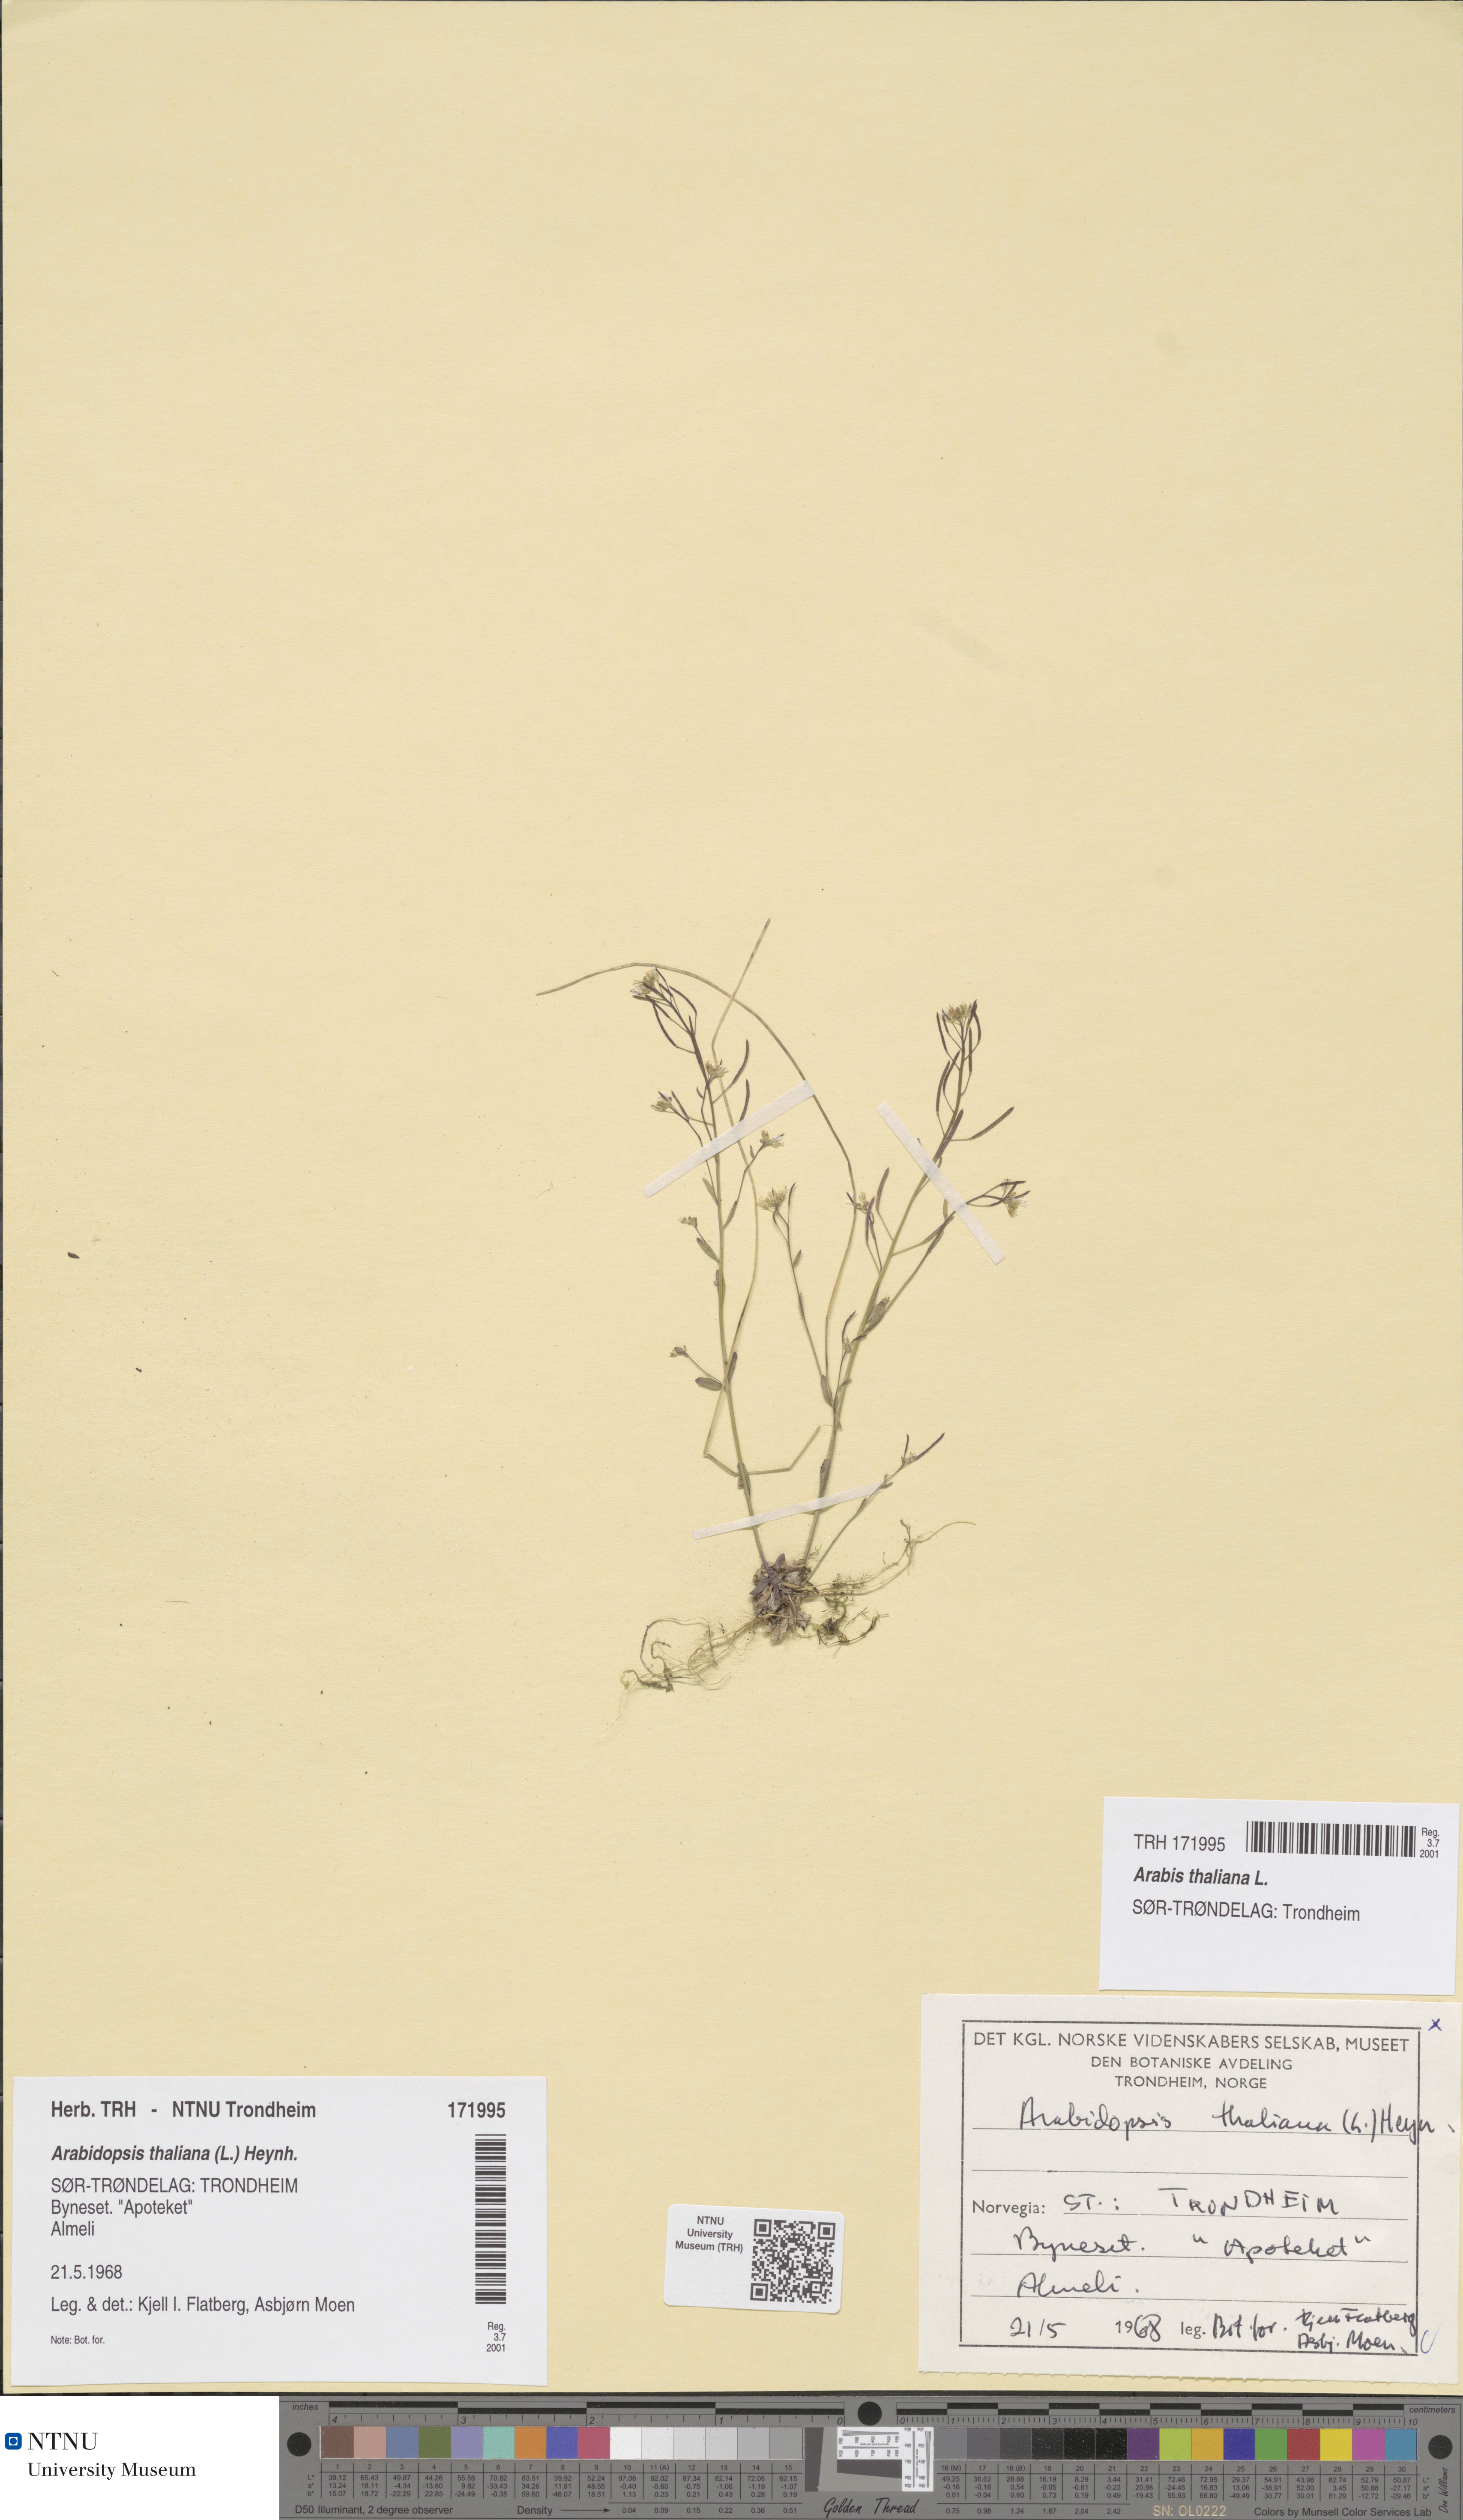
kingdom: Plantae
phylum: Tracheophyta
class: Magnoliopsida
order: Brassicales
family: Brassicaceae
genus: Arabidopsis
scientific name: Arabidopsis thaliana
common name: Thale cress
